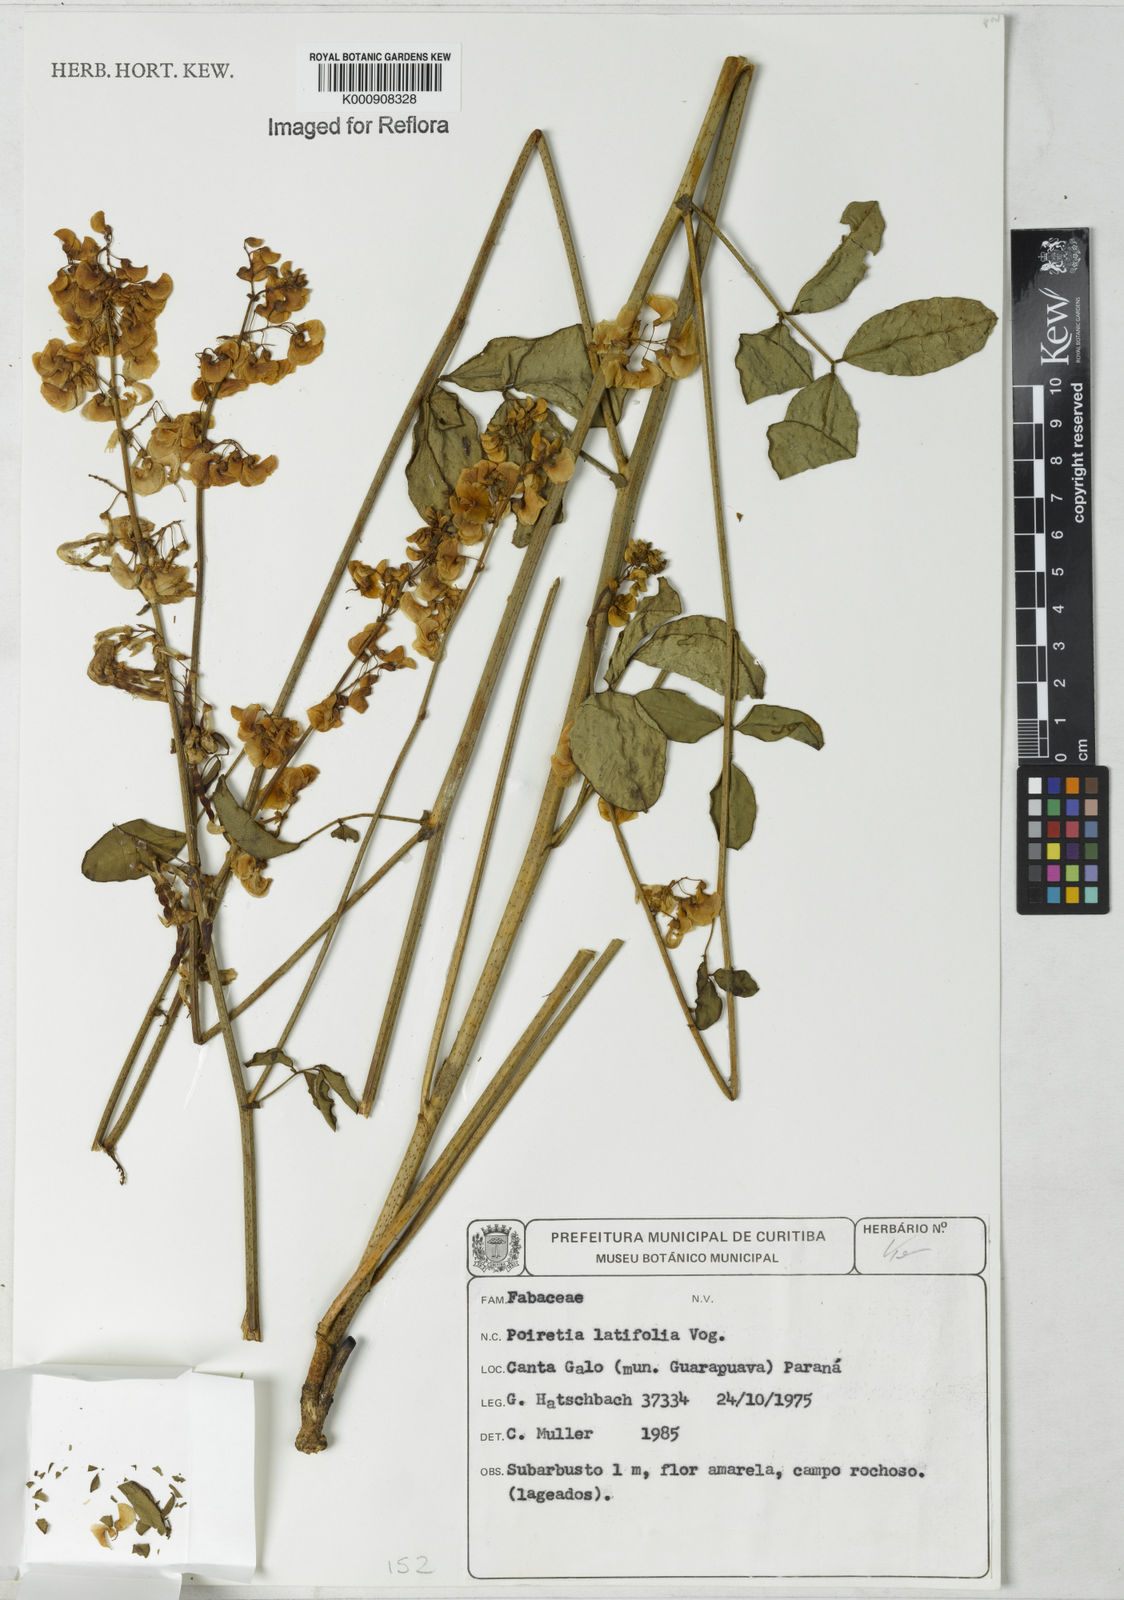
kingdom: Plantae
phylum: Tracheophyta
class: Magnoliopsida
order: Fabales
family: Fabaceae
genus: Poiretia
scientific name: Poiretia latifolia
